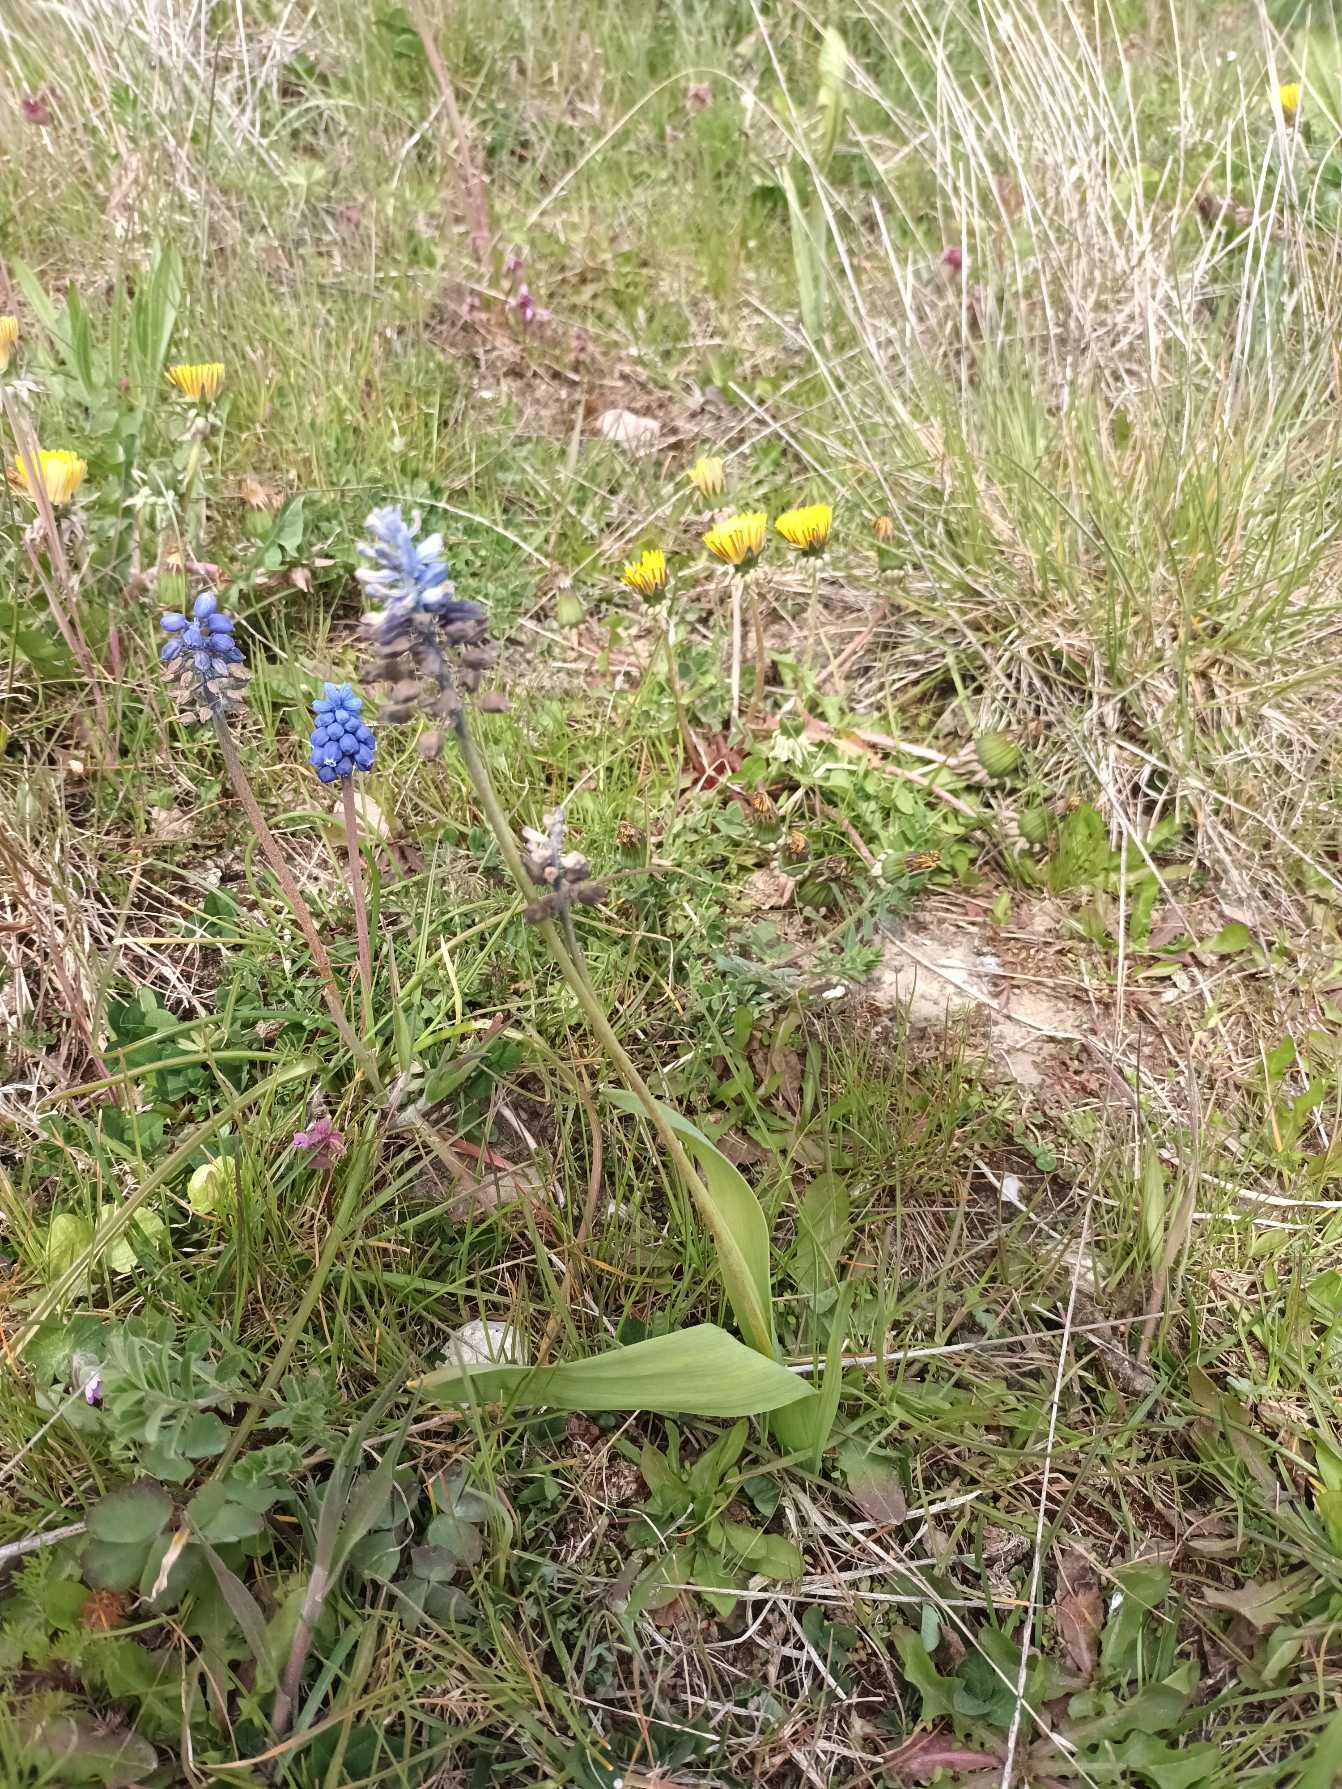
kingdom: Plantae
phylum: Tracheophyta
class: Liliopsida
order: Asparagales
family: Asparagaceae
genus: Muscari
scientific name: Muscari latifolium
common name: Bredbladet perlehyacint
